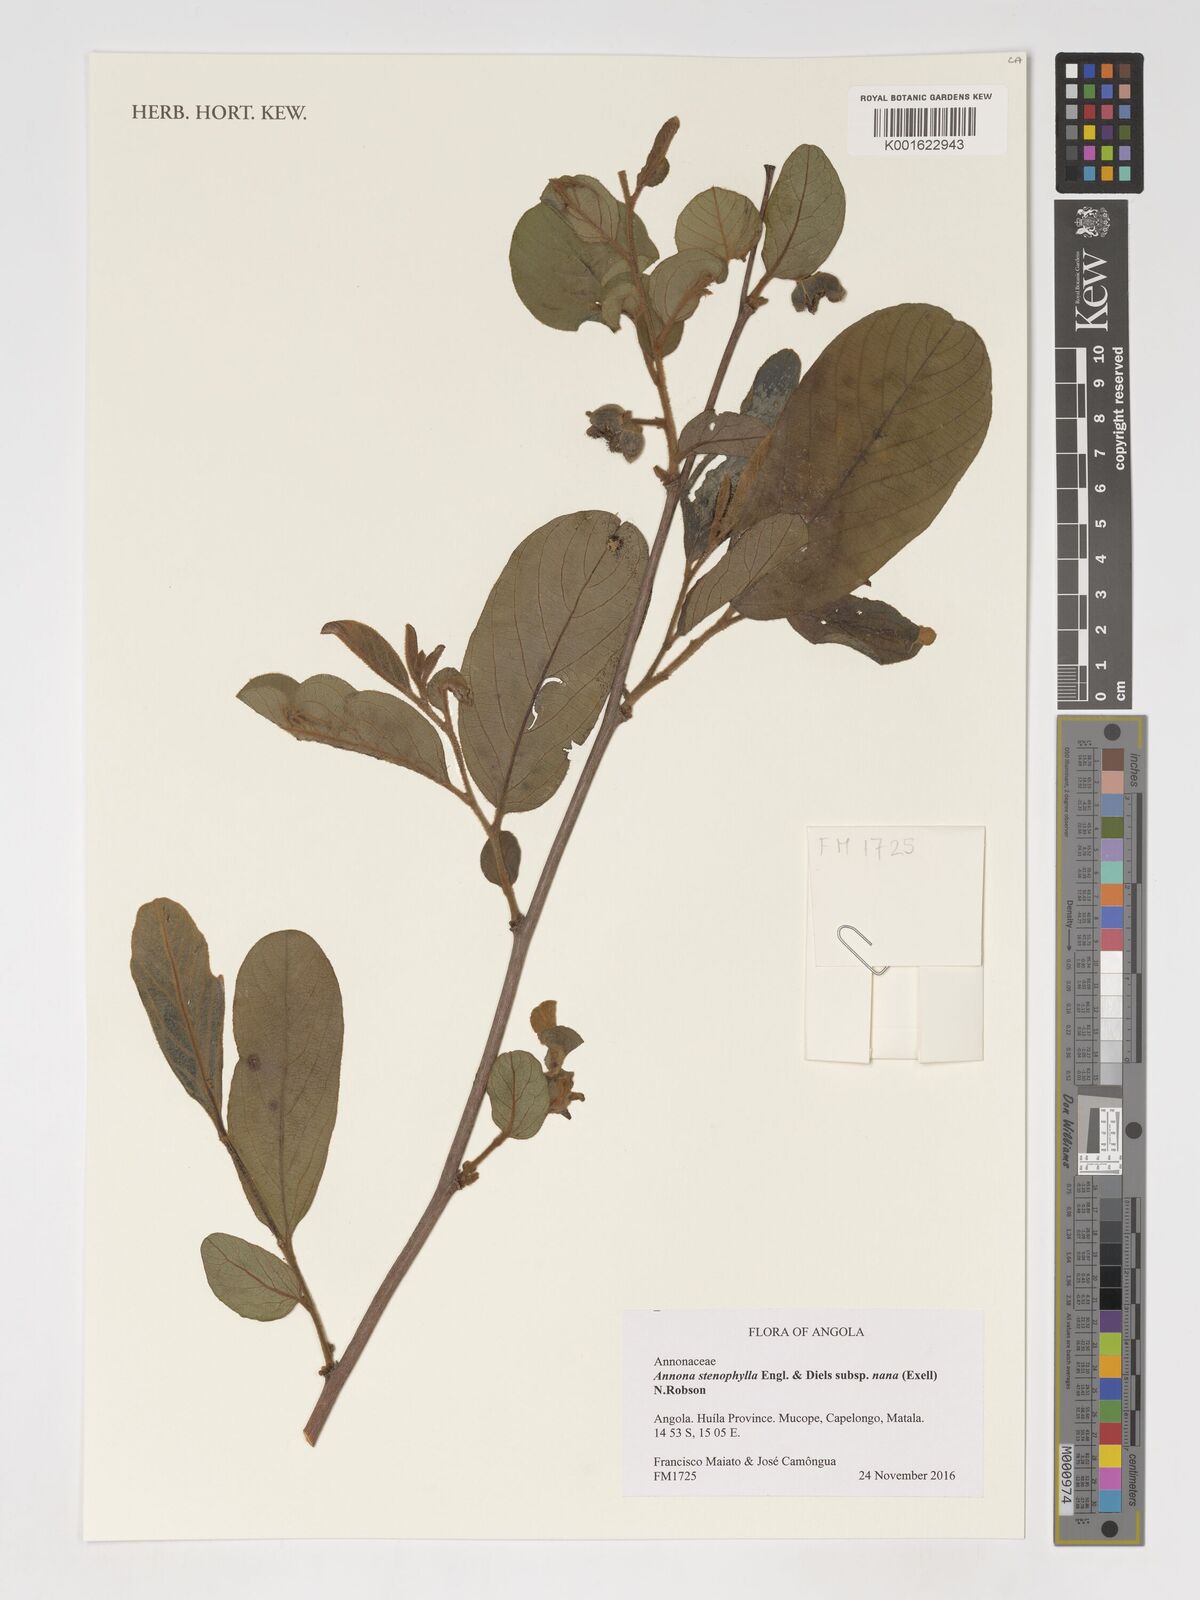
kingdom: Plantae
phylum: Tracheophyta
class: Magnoliopsida
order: Magnoliales
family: Annonaceae
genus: Annona
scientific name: Annona stenophylla
